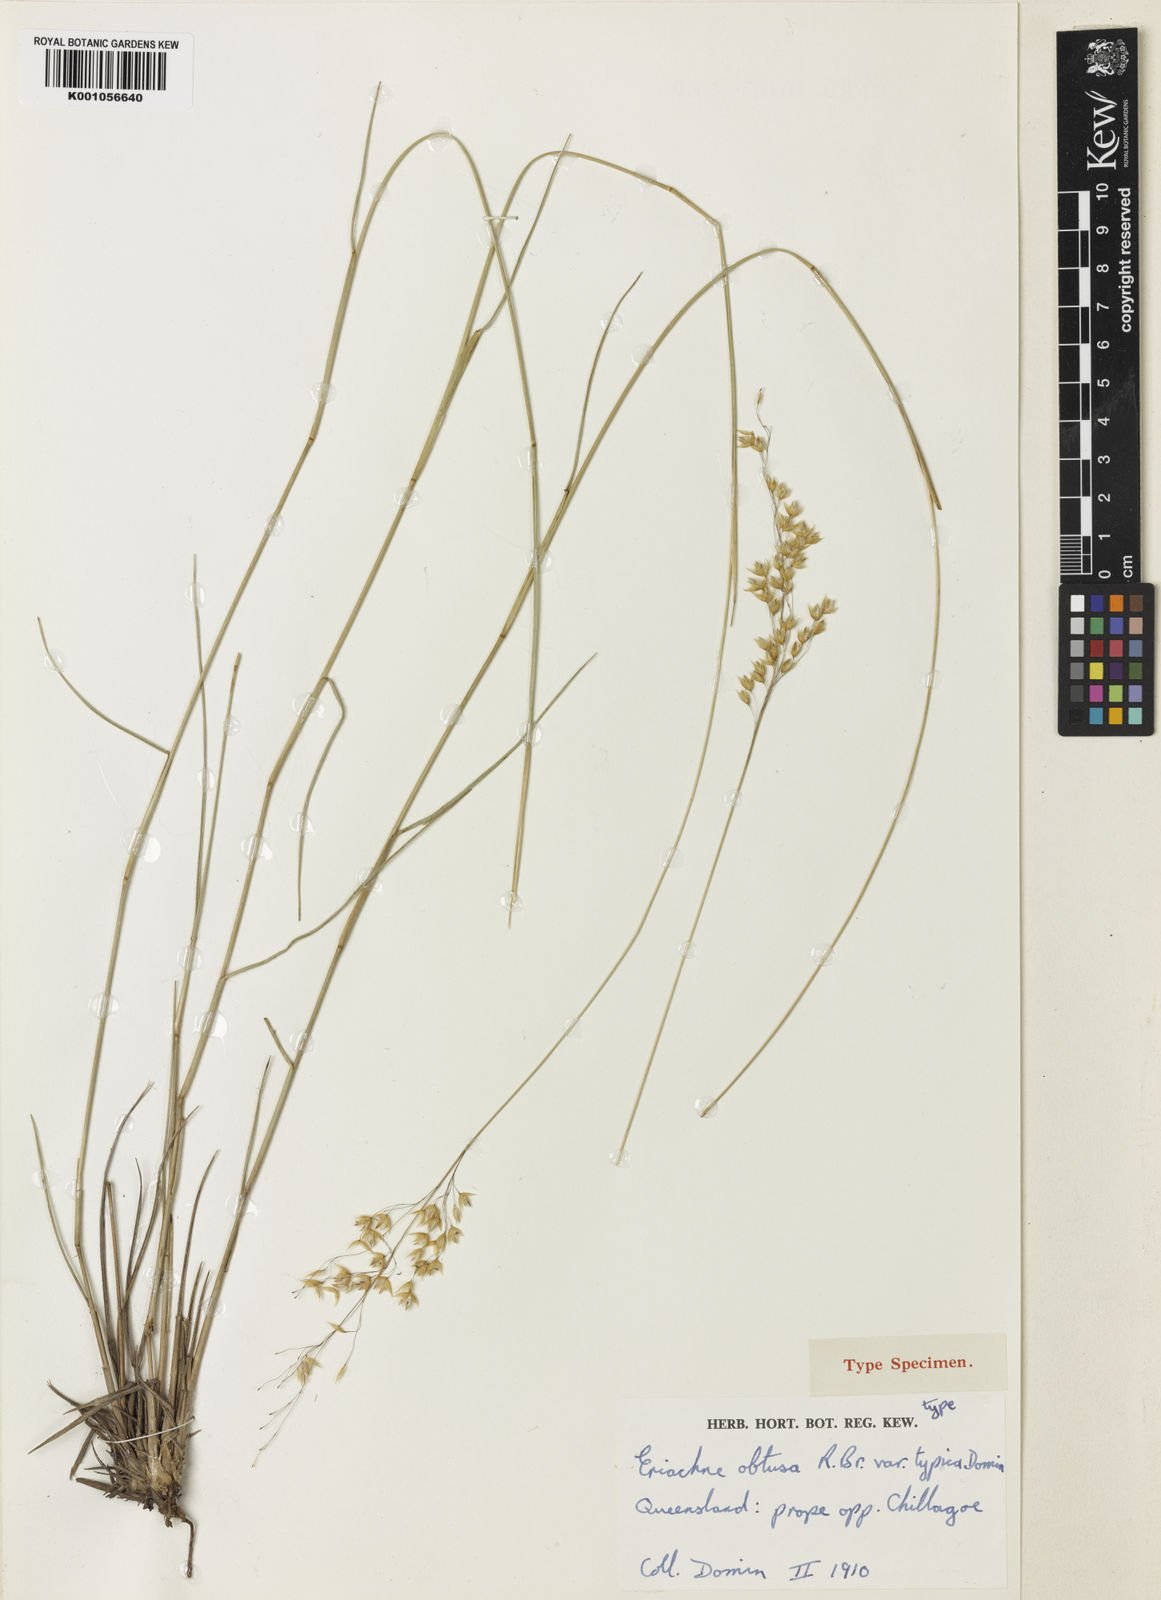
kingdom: Plantae
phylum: Tracheophyta
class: Liliopsida
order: Poales
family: Poaceae
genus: Eriachne
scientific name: Eriachne obtusa
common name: Northern wanderrie grass
